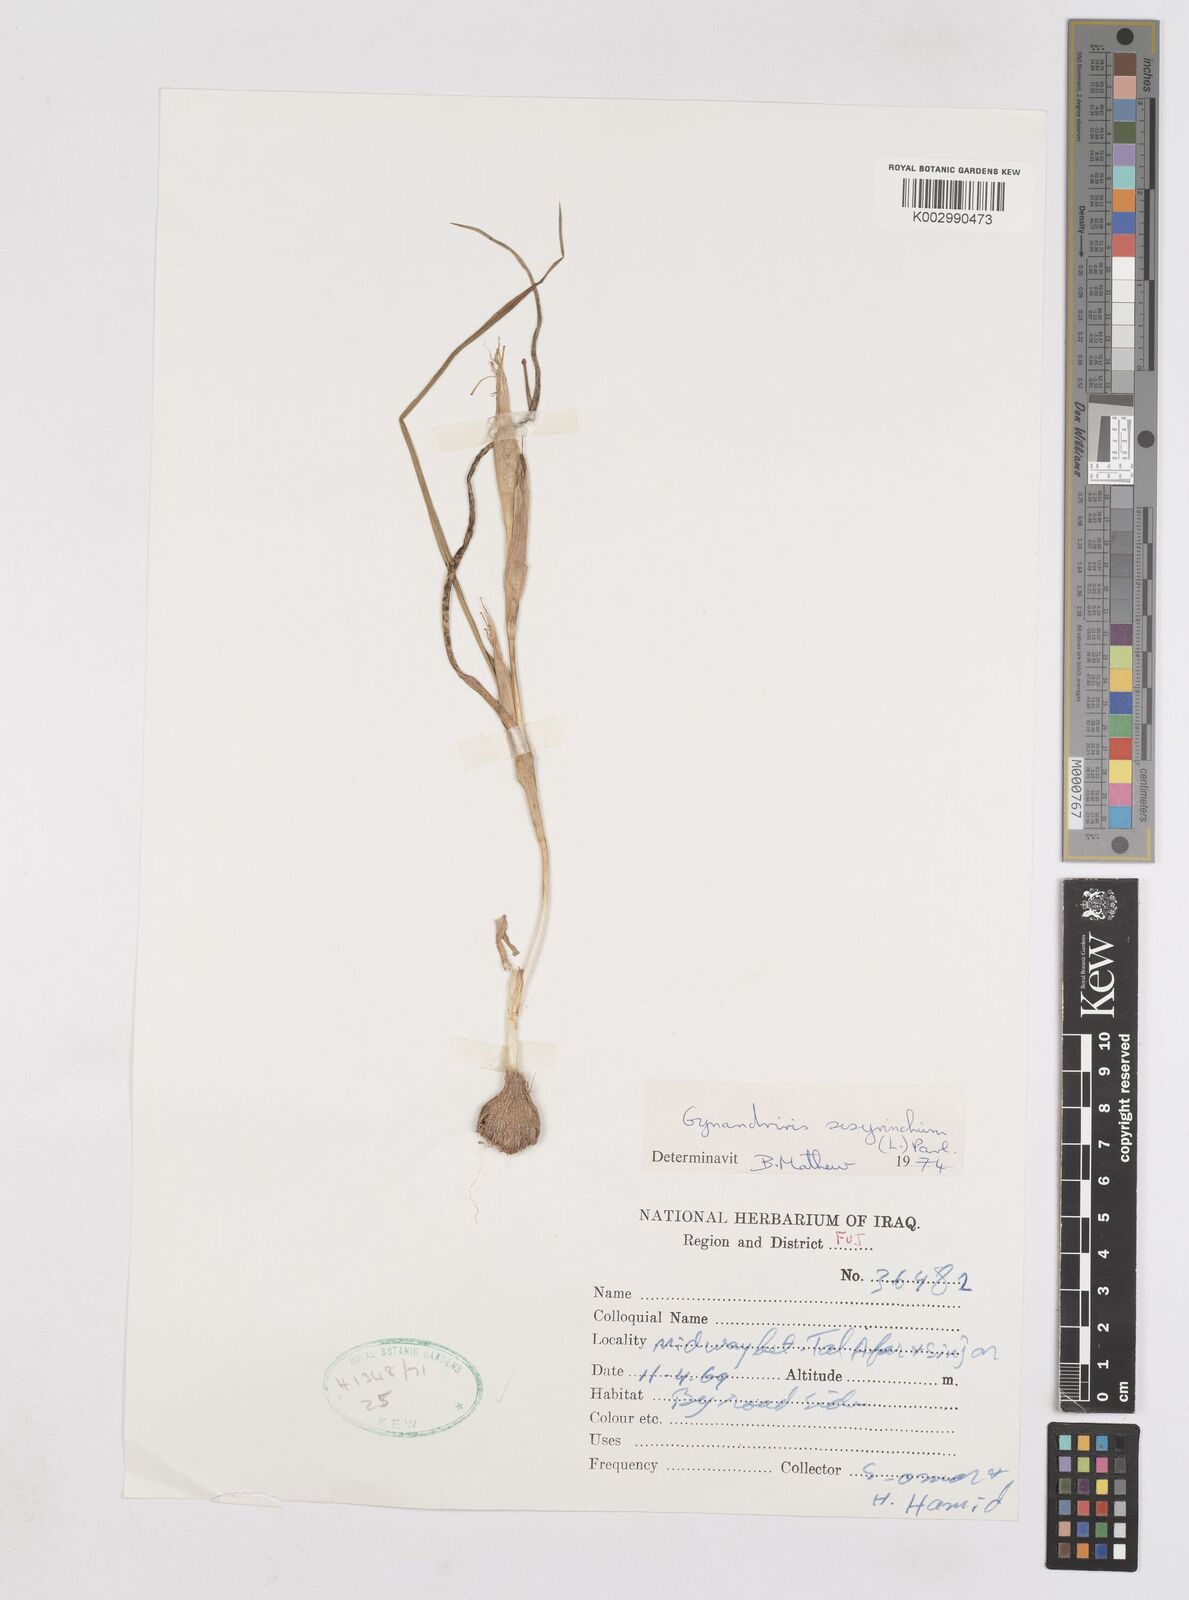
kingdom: Plantae
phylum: Tracheophyta
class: Liliopsida
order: Asparagales
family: Iridaceae
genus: Moraea
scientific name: Moraea sisyrinchium
